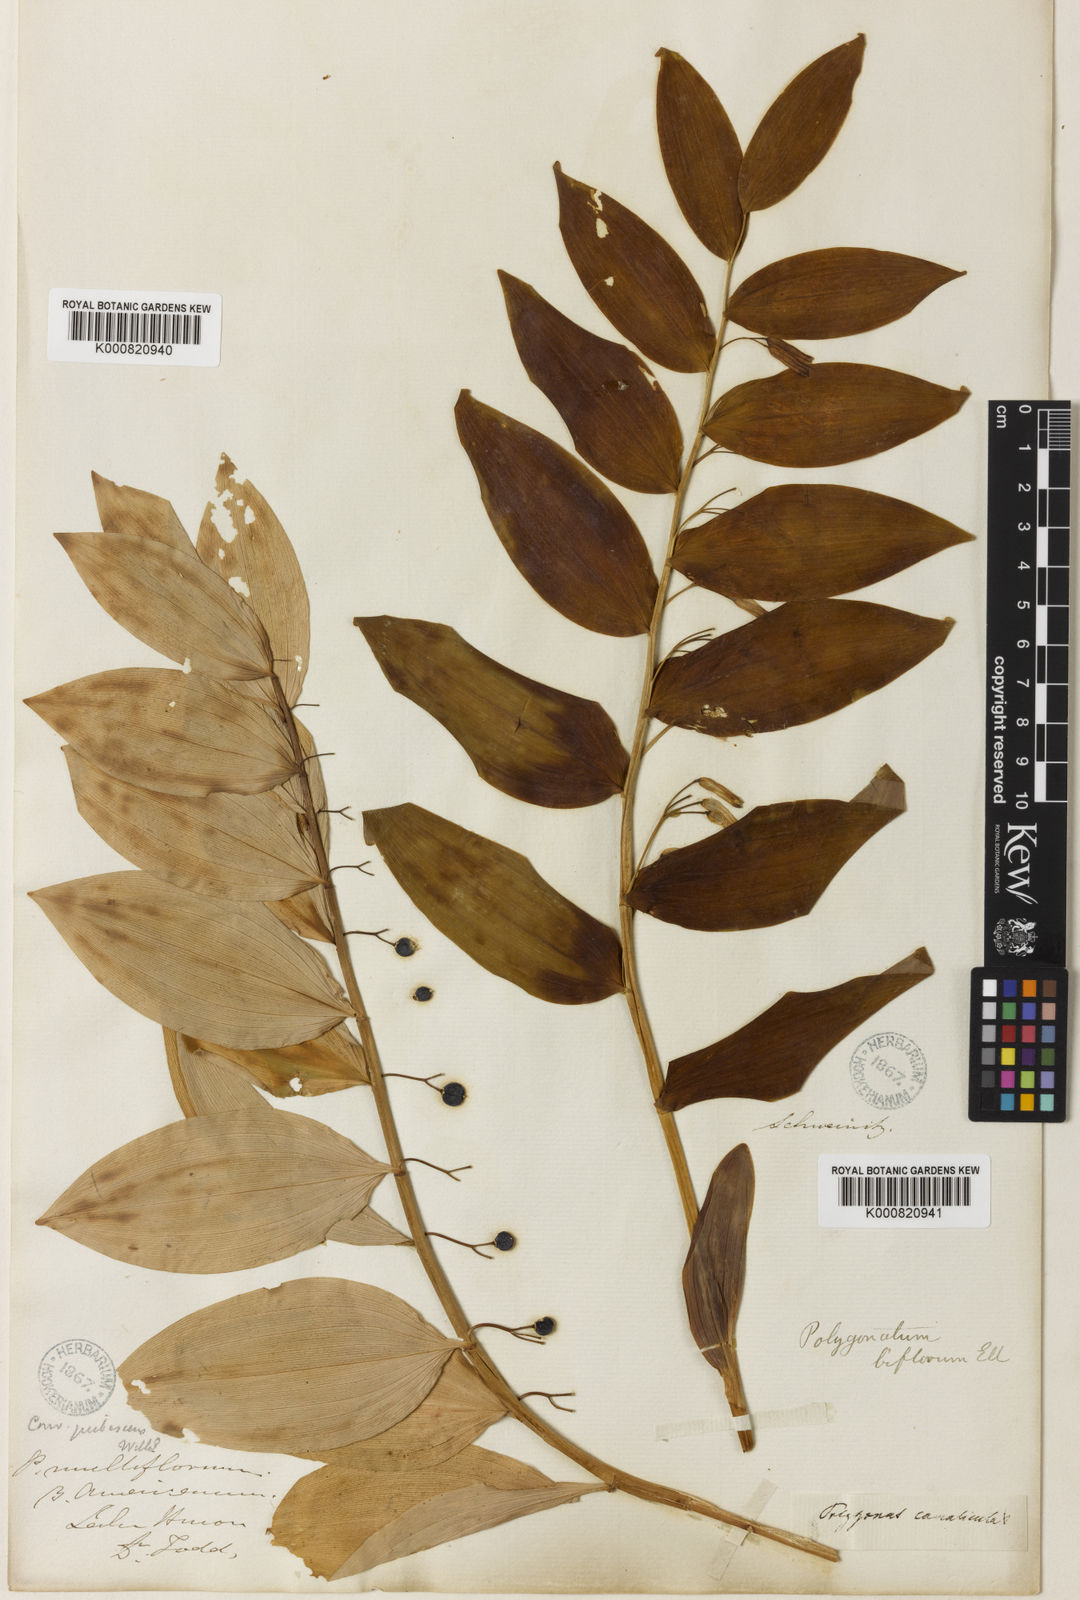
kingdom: Plantae
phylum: Tracheophyta
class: Liliopsida
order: Asparagales
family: Asparagaceae
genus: Polygonatum
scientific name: Polygonatum biflorum
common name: American solomon's-seal
